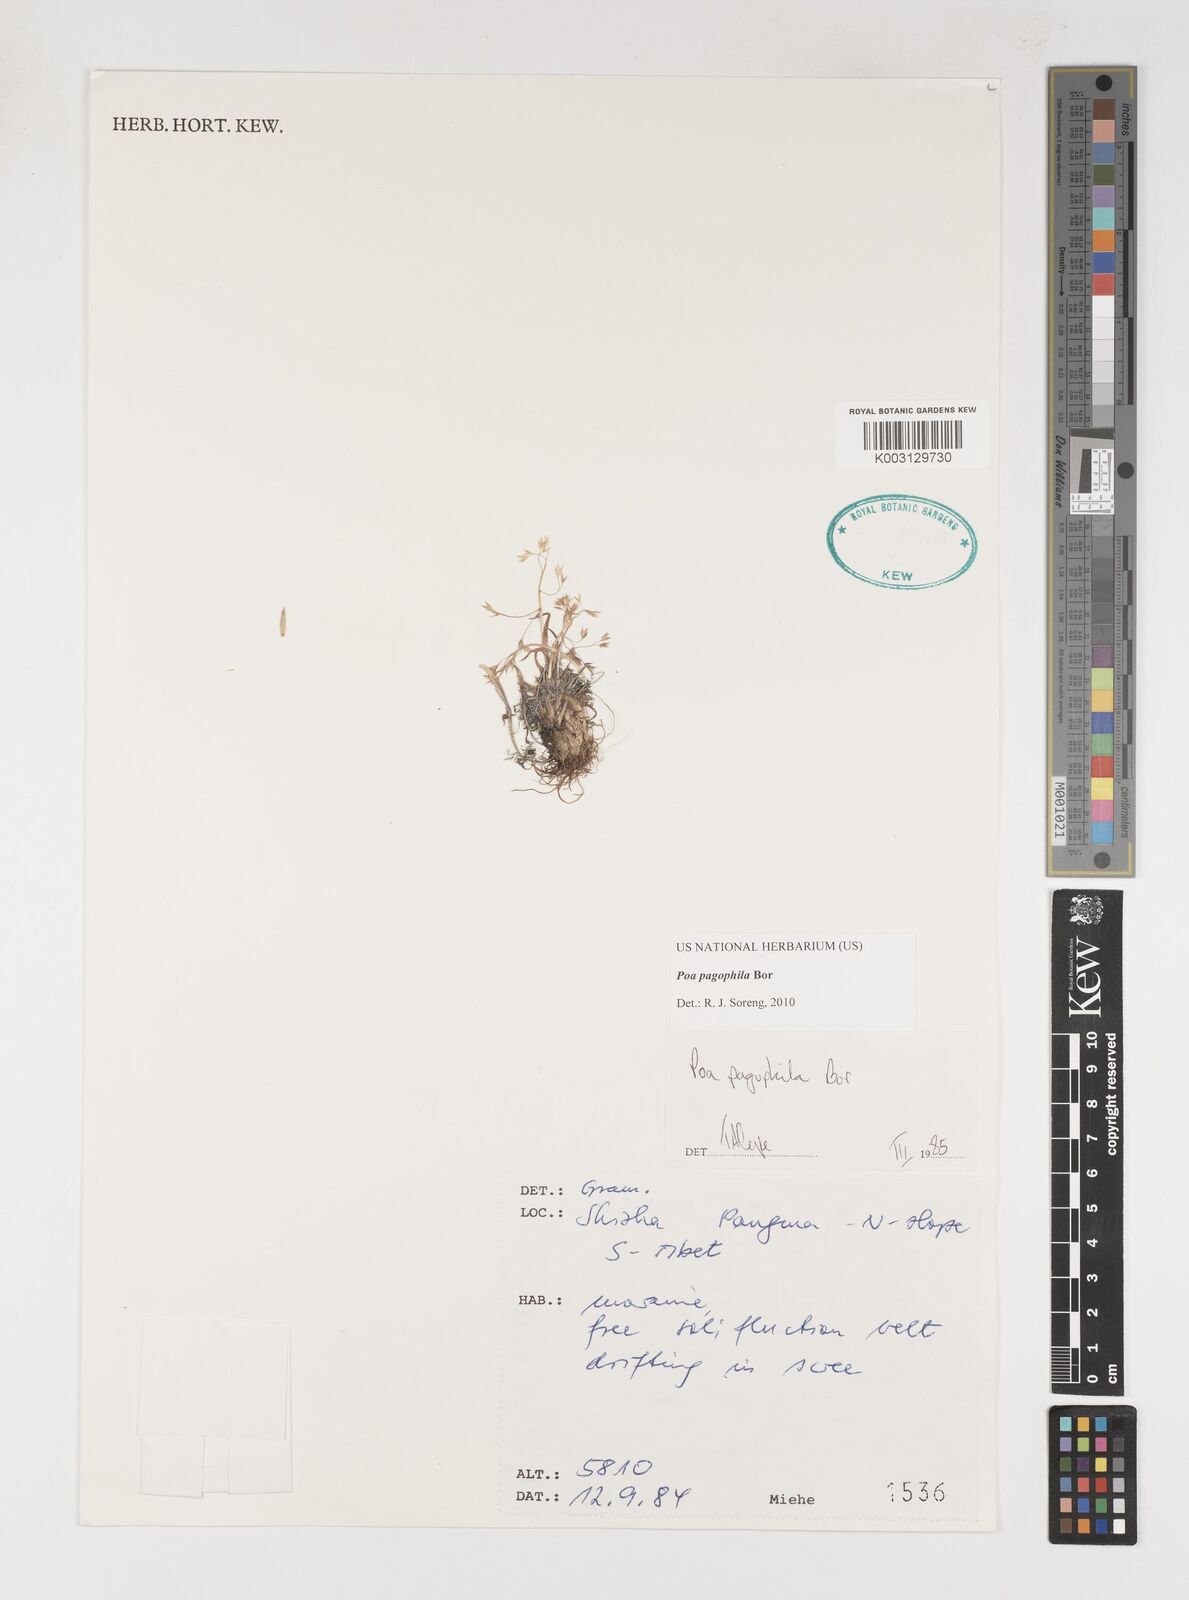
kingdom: Plantae
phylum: Tracheophyta
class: Liliopsida
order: Poales
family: Poaceae
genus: Poa
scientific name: Poa pagophila
